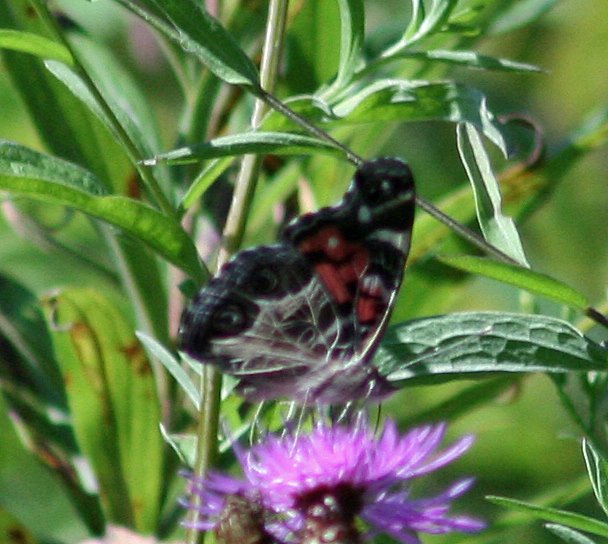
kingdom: Animalia
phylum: Arthropoda
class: Insecta
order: Lepidoptera
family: Nymphalidae
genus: Vanessa
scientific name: Vanessa virginiensis
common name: American Lady
